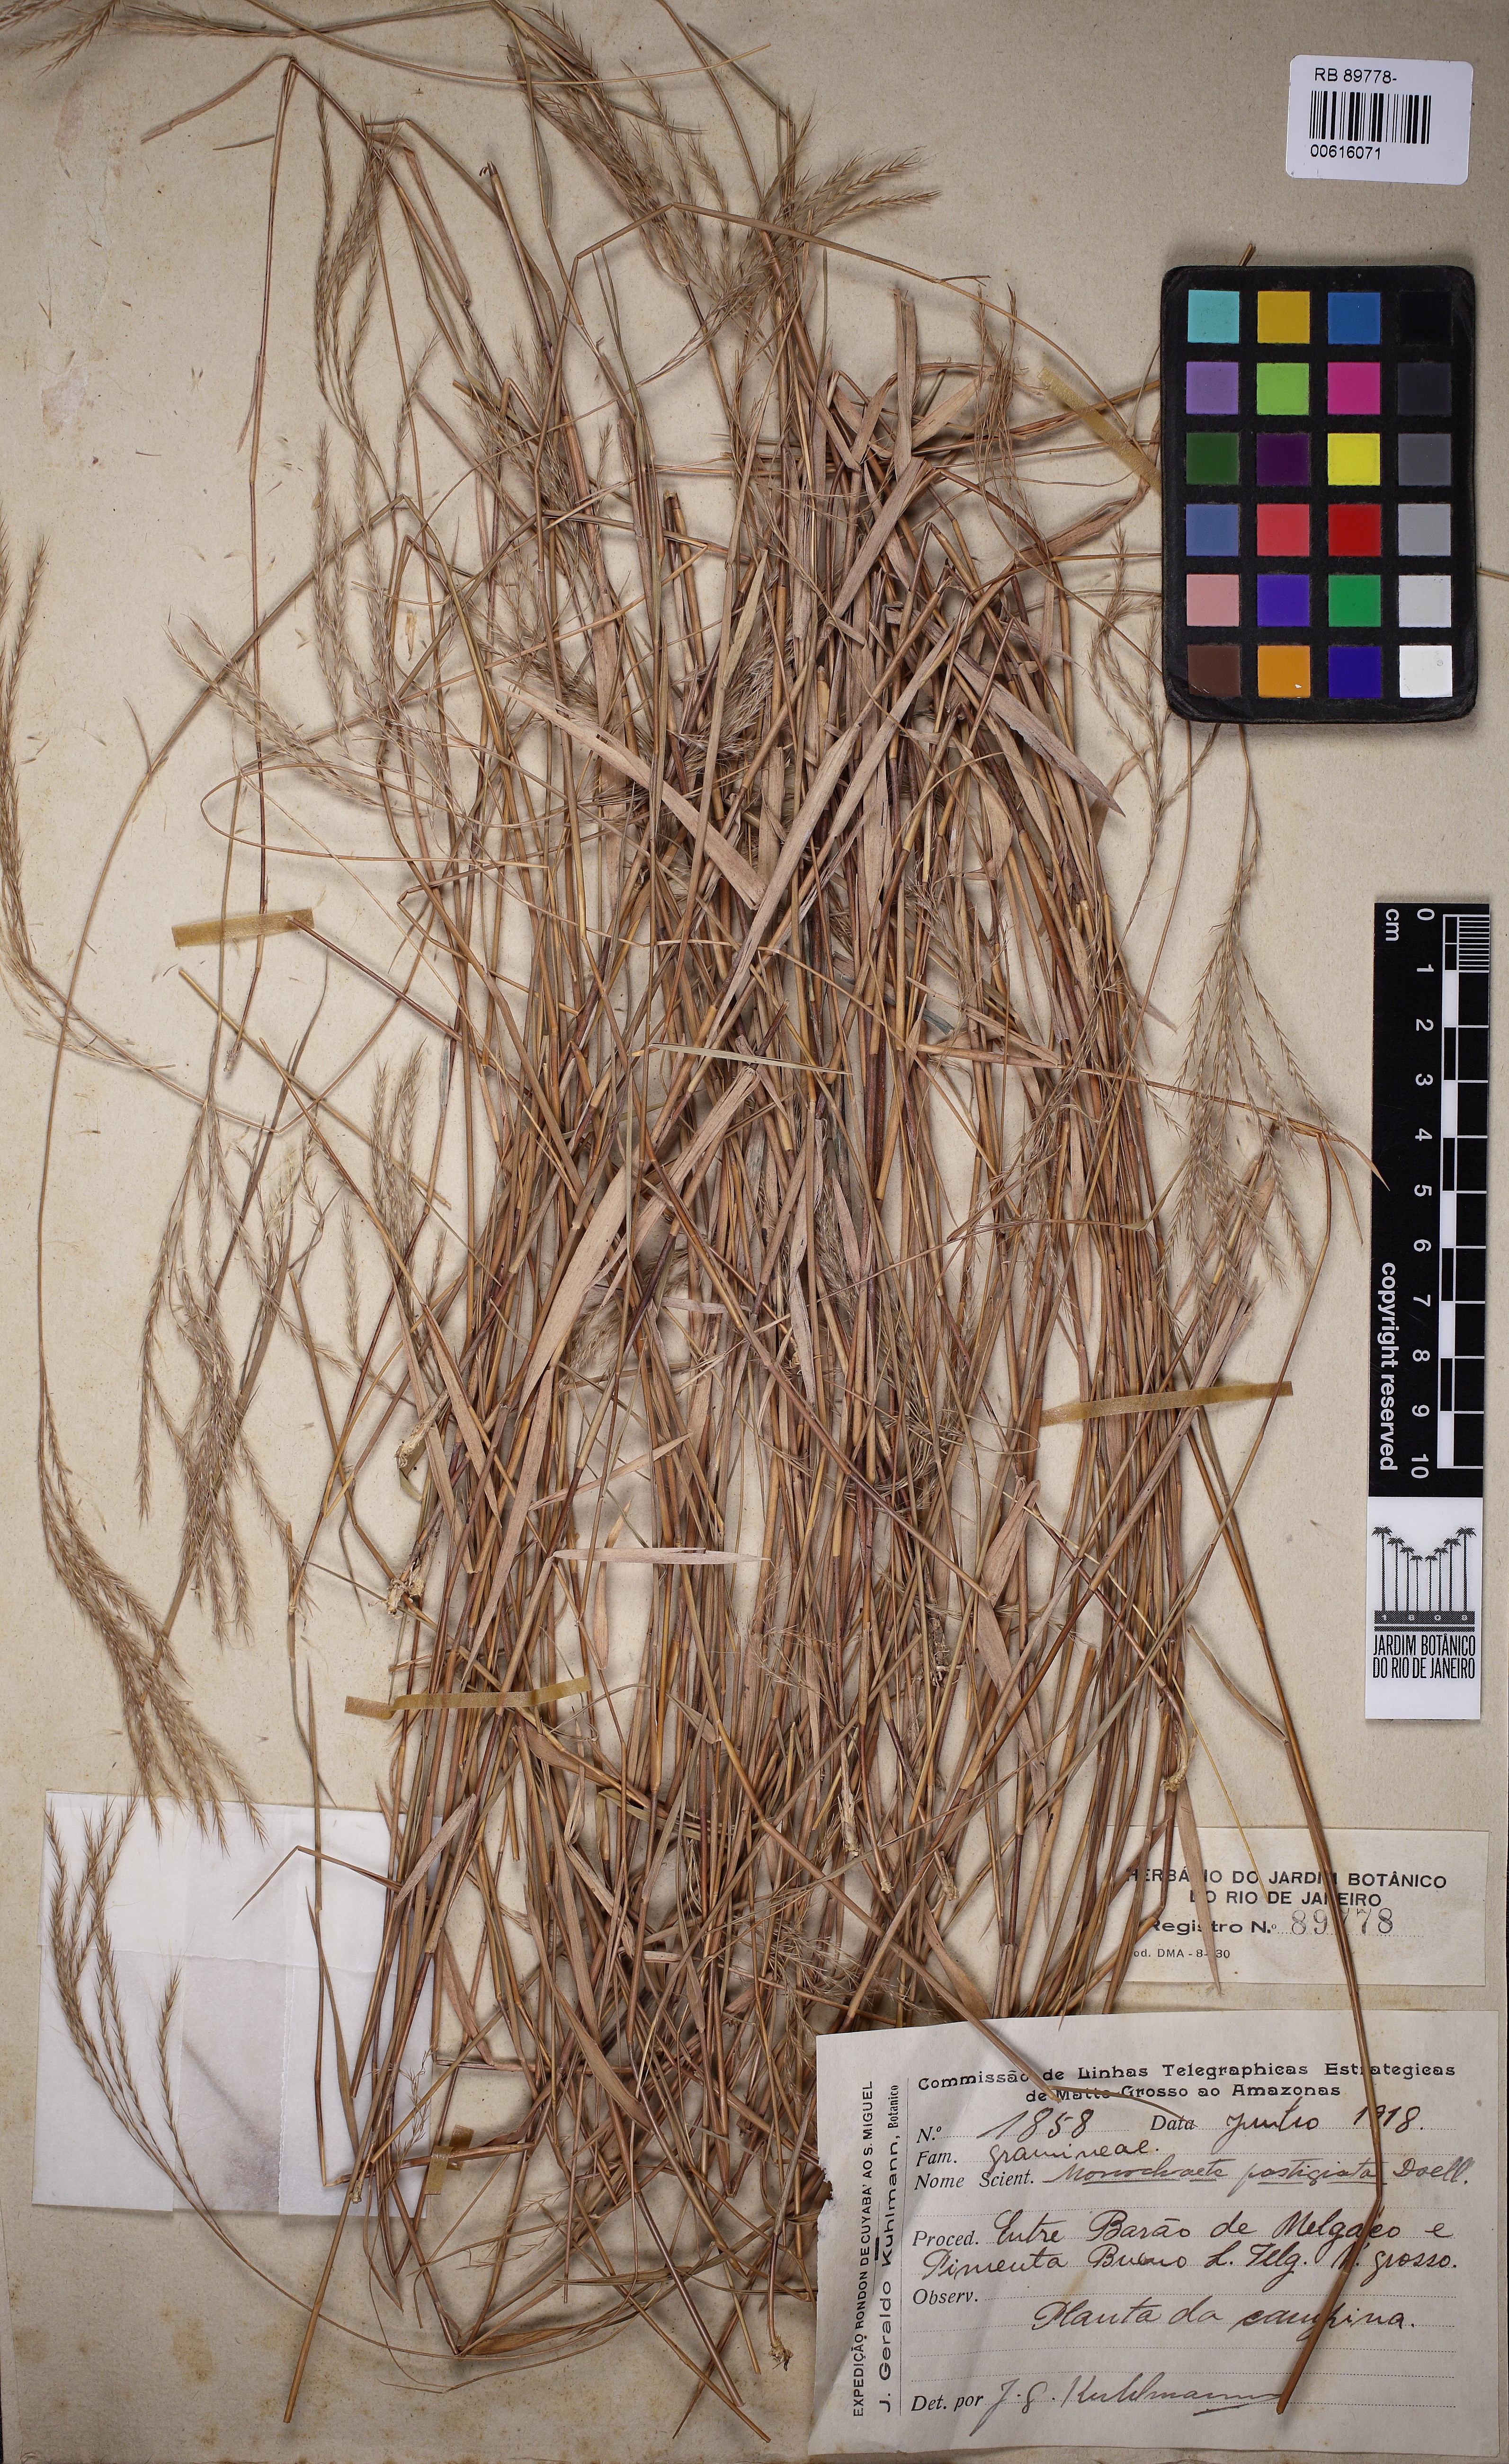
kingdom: Plantae
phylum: Tracheophyta
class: Liliopsida
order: Poales
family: Poaceae
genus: Gymnopogon
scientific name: Gymnopogon fastigiatus
